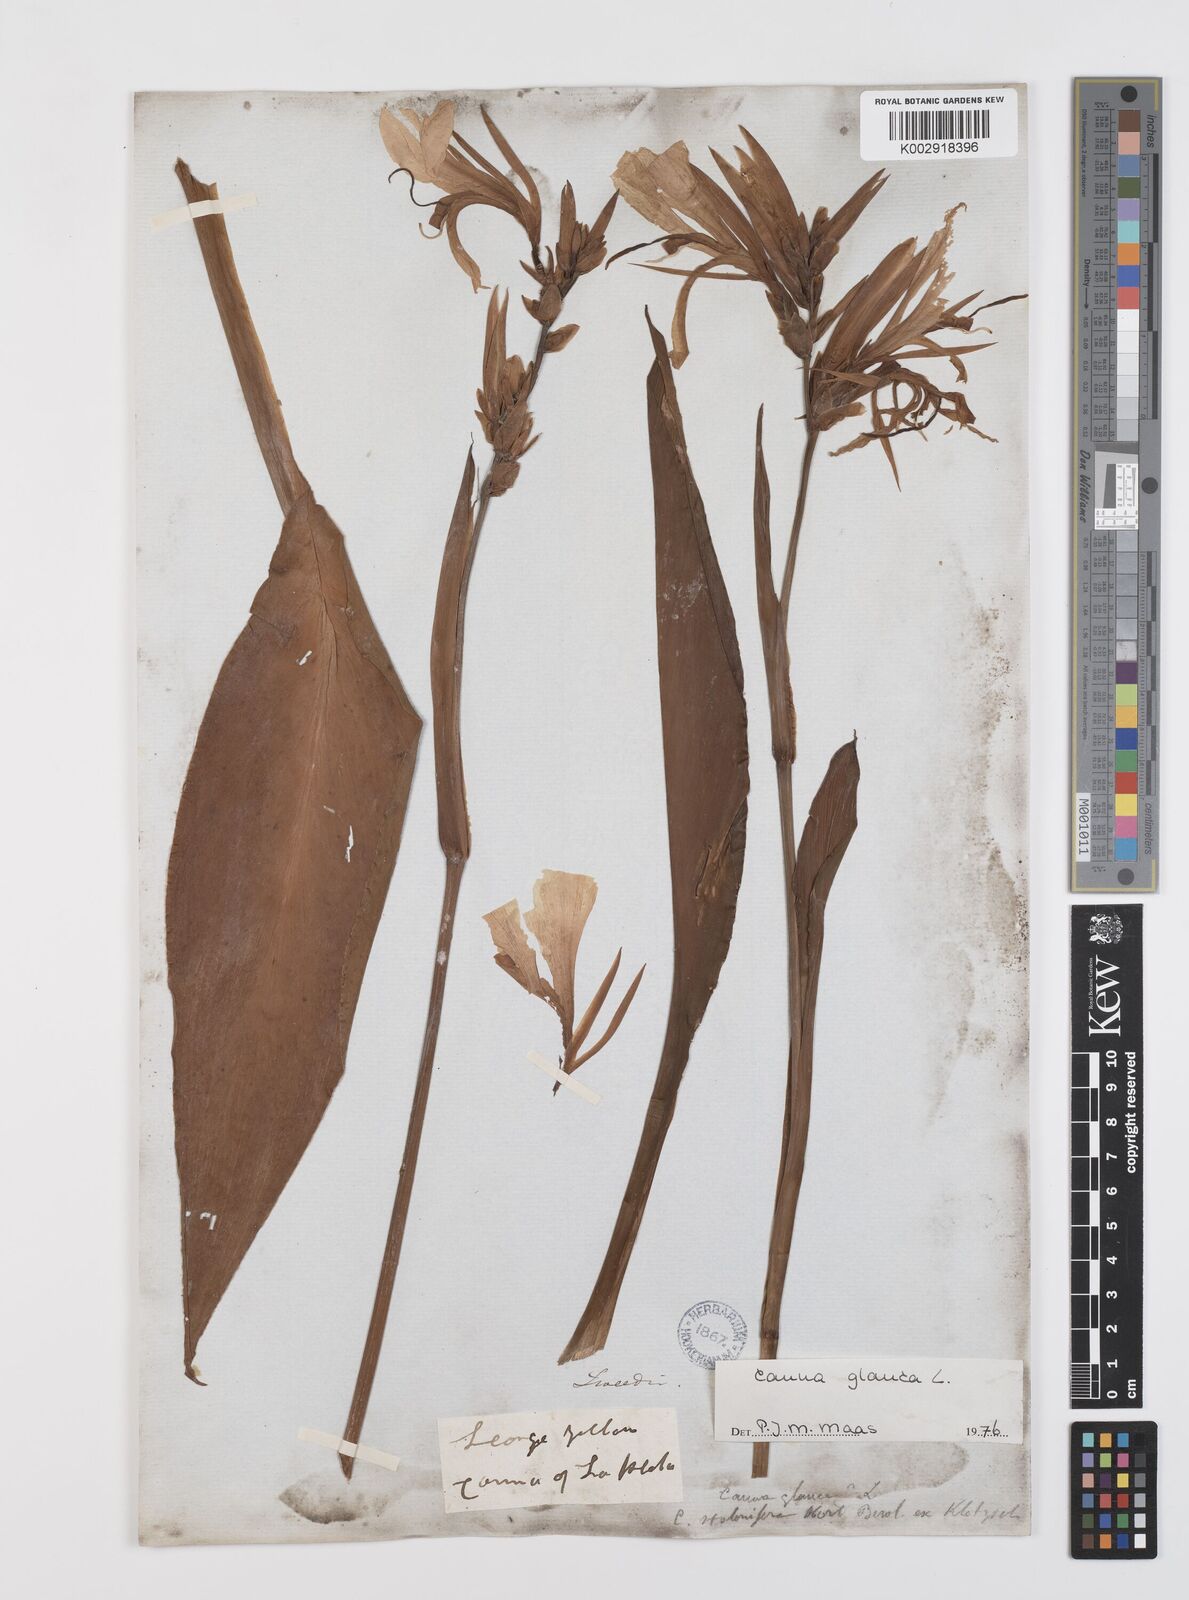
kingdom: Plantae
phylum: Tracheophyta
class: Liliopsida
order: Zingiberales
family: Cannaceae
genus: Canna
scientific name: Canna glauca
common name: Louisiana canna
